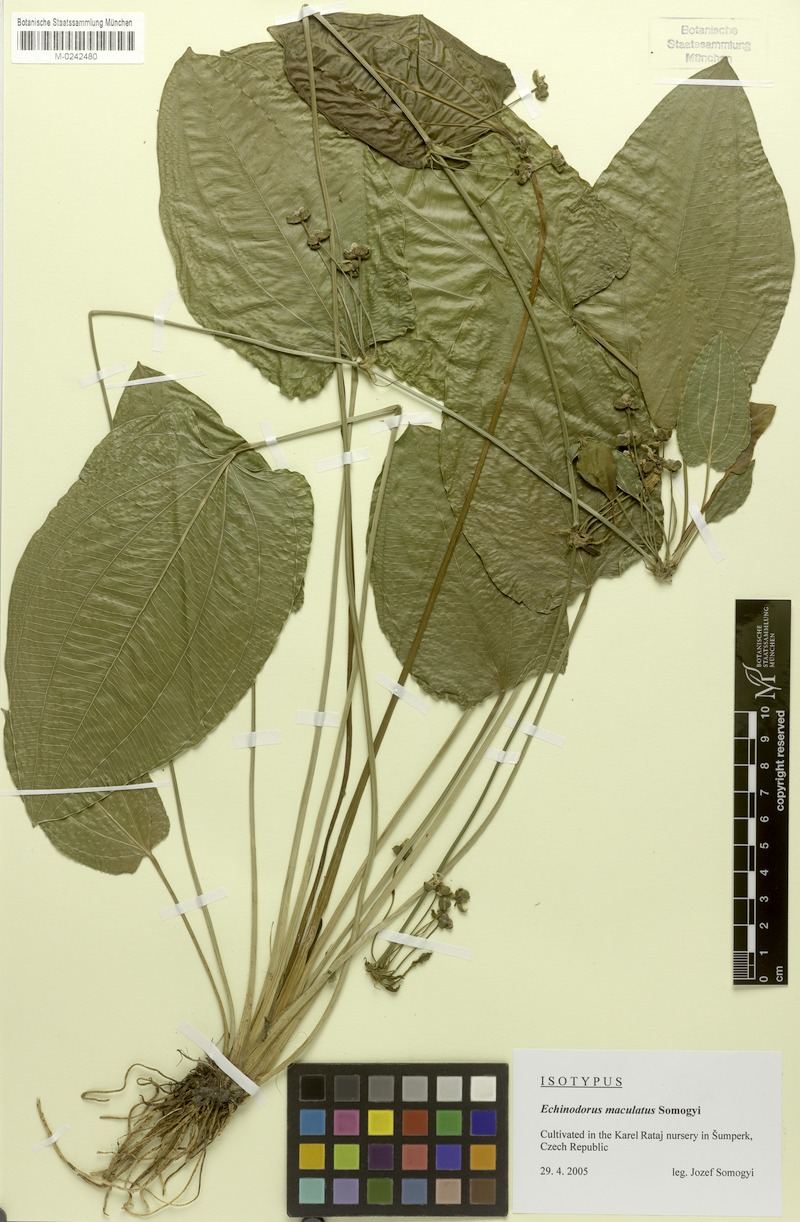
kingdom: Plantae
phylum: Tracheophyta
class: Liliopsida
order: Alismatales
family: Alismataceae
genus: Echinodorus
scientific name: Echinodorus maculatus
